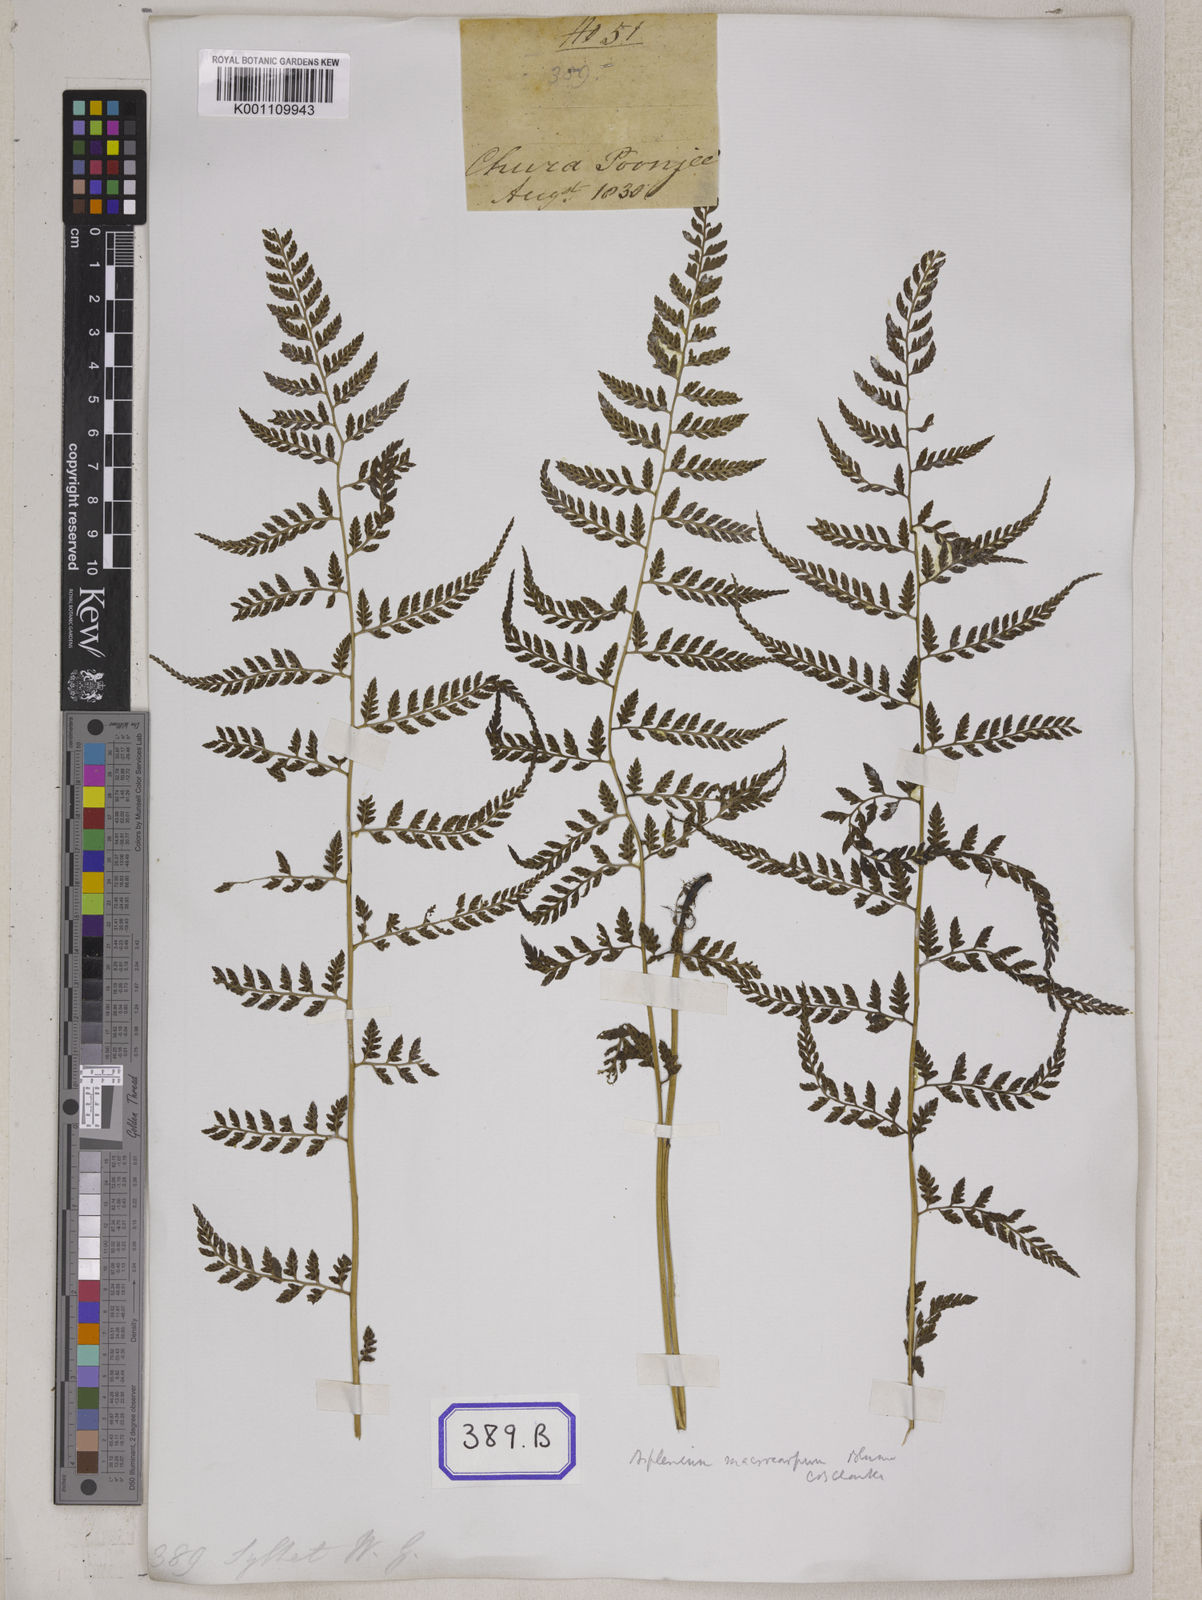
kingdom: Plantae
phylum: Tracheophyta
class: Polypodiopsida
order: Polypodiales
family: Athyriaceae
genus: Athyrium
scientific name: Athyrium eburneum
